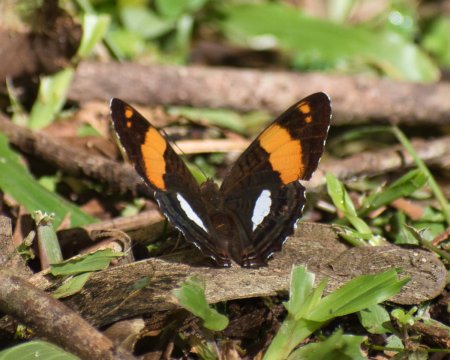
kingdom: Animalia
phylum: Arthropoda
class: Insecta
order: Lepidoptera
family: Nymphalidae
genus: Limenitis
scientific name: Limenitis zina
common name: Zina Sister
